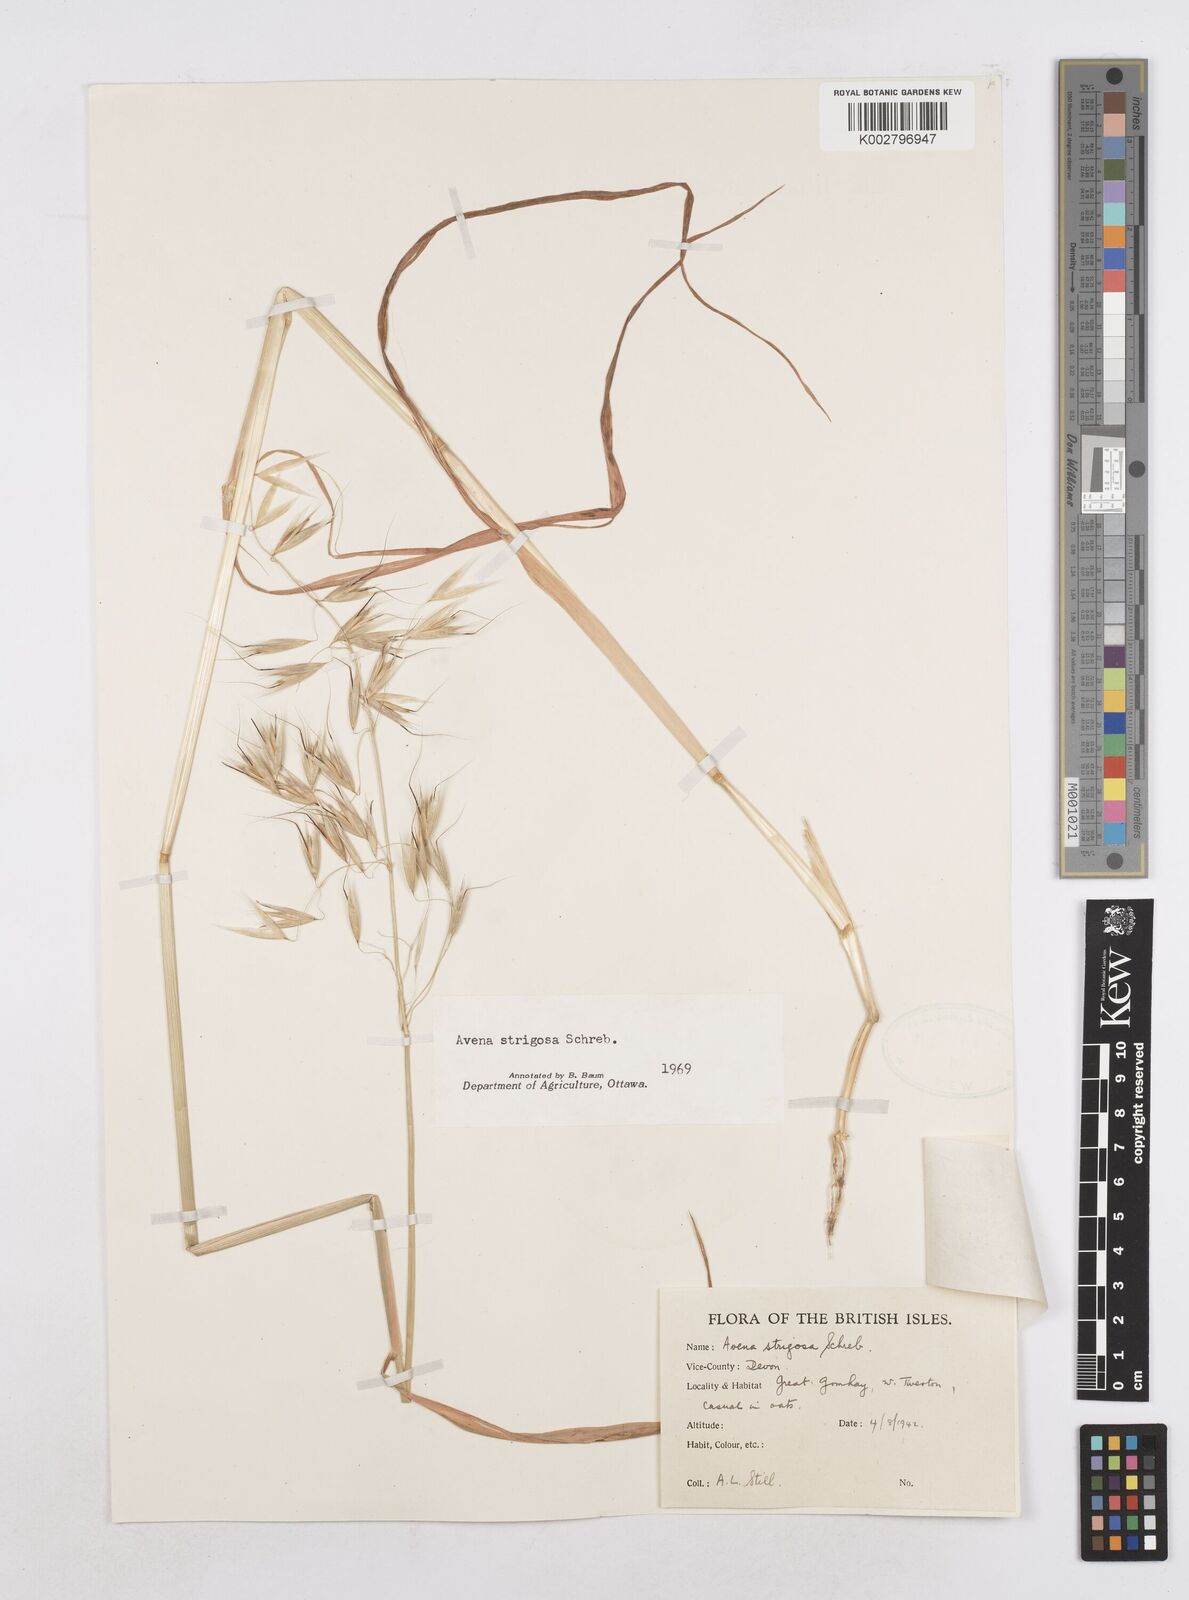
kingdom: Plantae
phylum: Tracheophyta
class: Liliopsida
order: Poales
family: Poaceae
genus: Avena
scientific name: Avena strigosa
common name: Bristle oat
